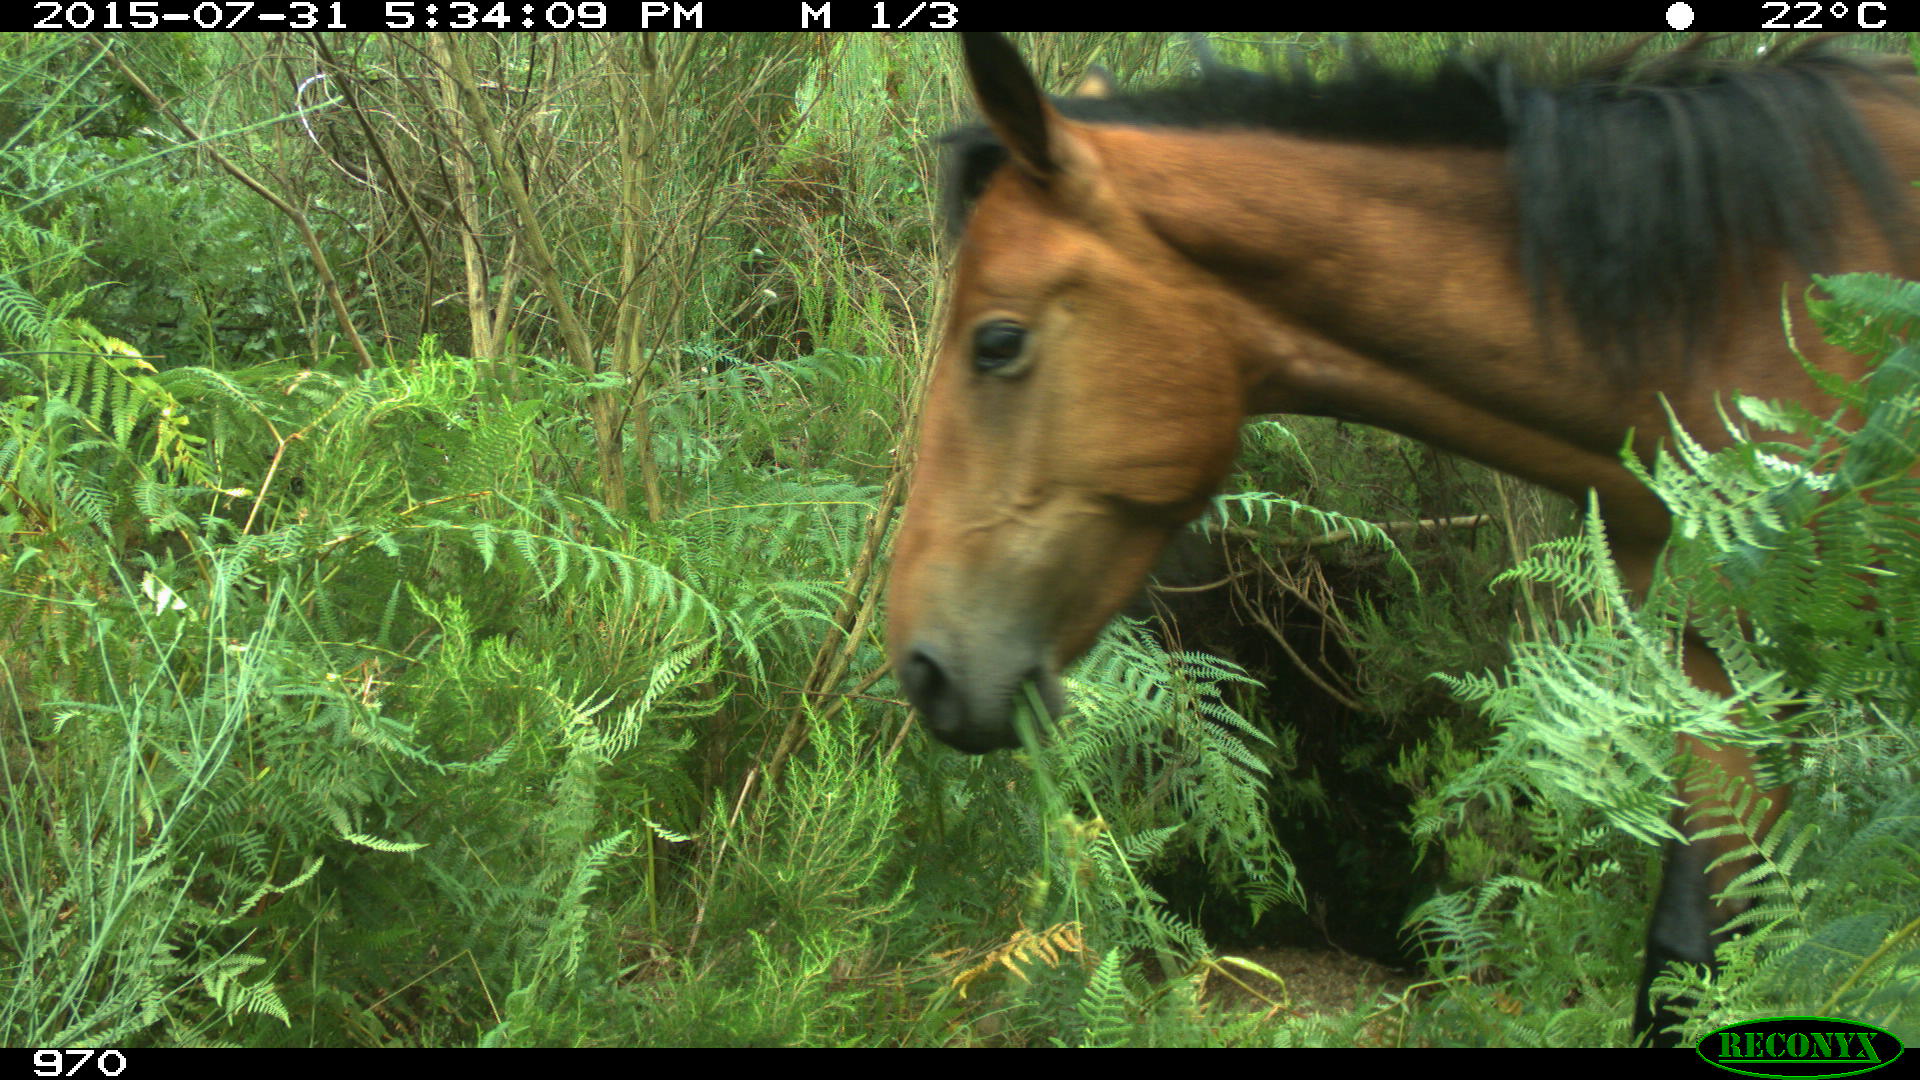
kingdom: Animalia
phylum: Chordata
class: Mammalia
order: Perissodactyla
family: Equidae
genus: Equus
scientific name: Equus caballus
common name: Horse
